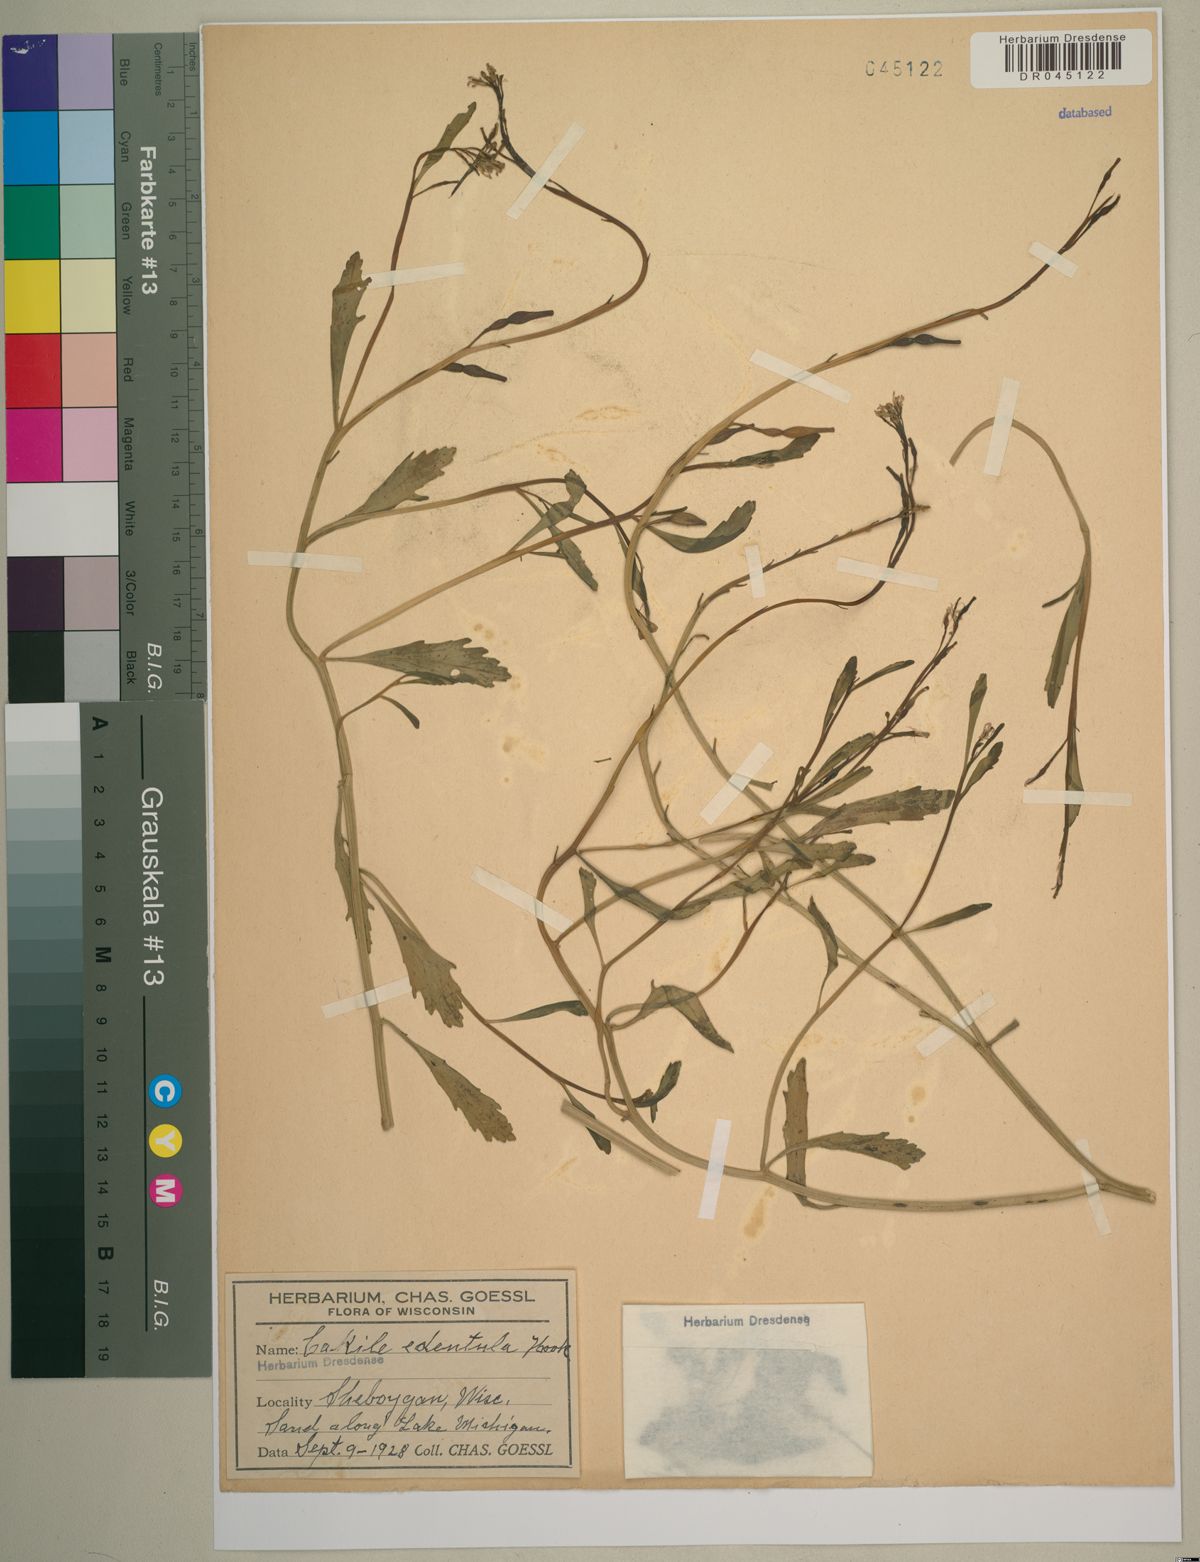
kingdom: Plantae
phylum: Tracheophyta
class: Magnoliopsida
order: Brassicales
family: Brassicaceae
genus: Cakile
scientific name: Cakile edentula
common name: American sea rocket
